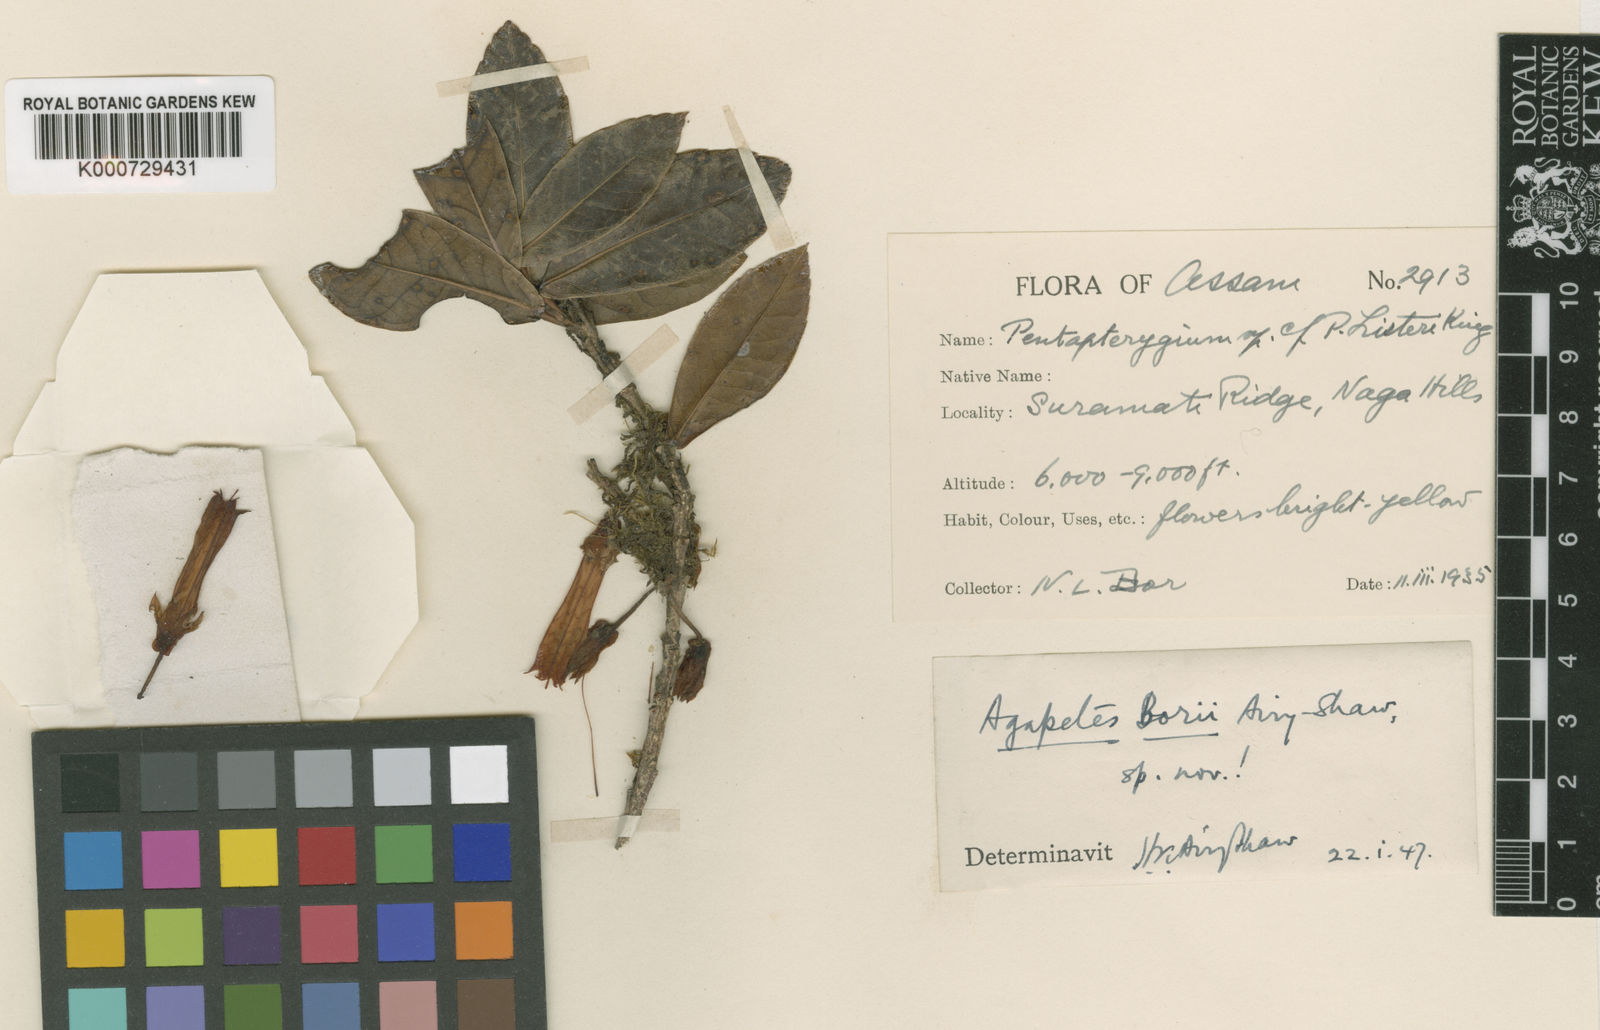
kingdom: Plantae
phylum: Tracheophyta
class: Magnoliopsida
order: Ericales
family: Ericaceae
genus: Agapetes
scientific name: Agapetes borii
